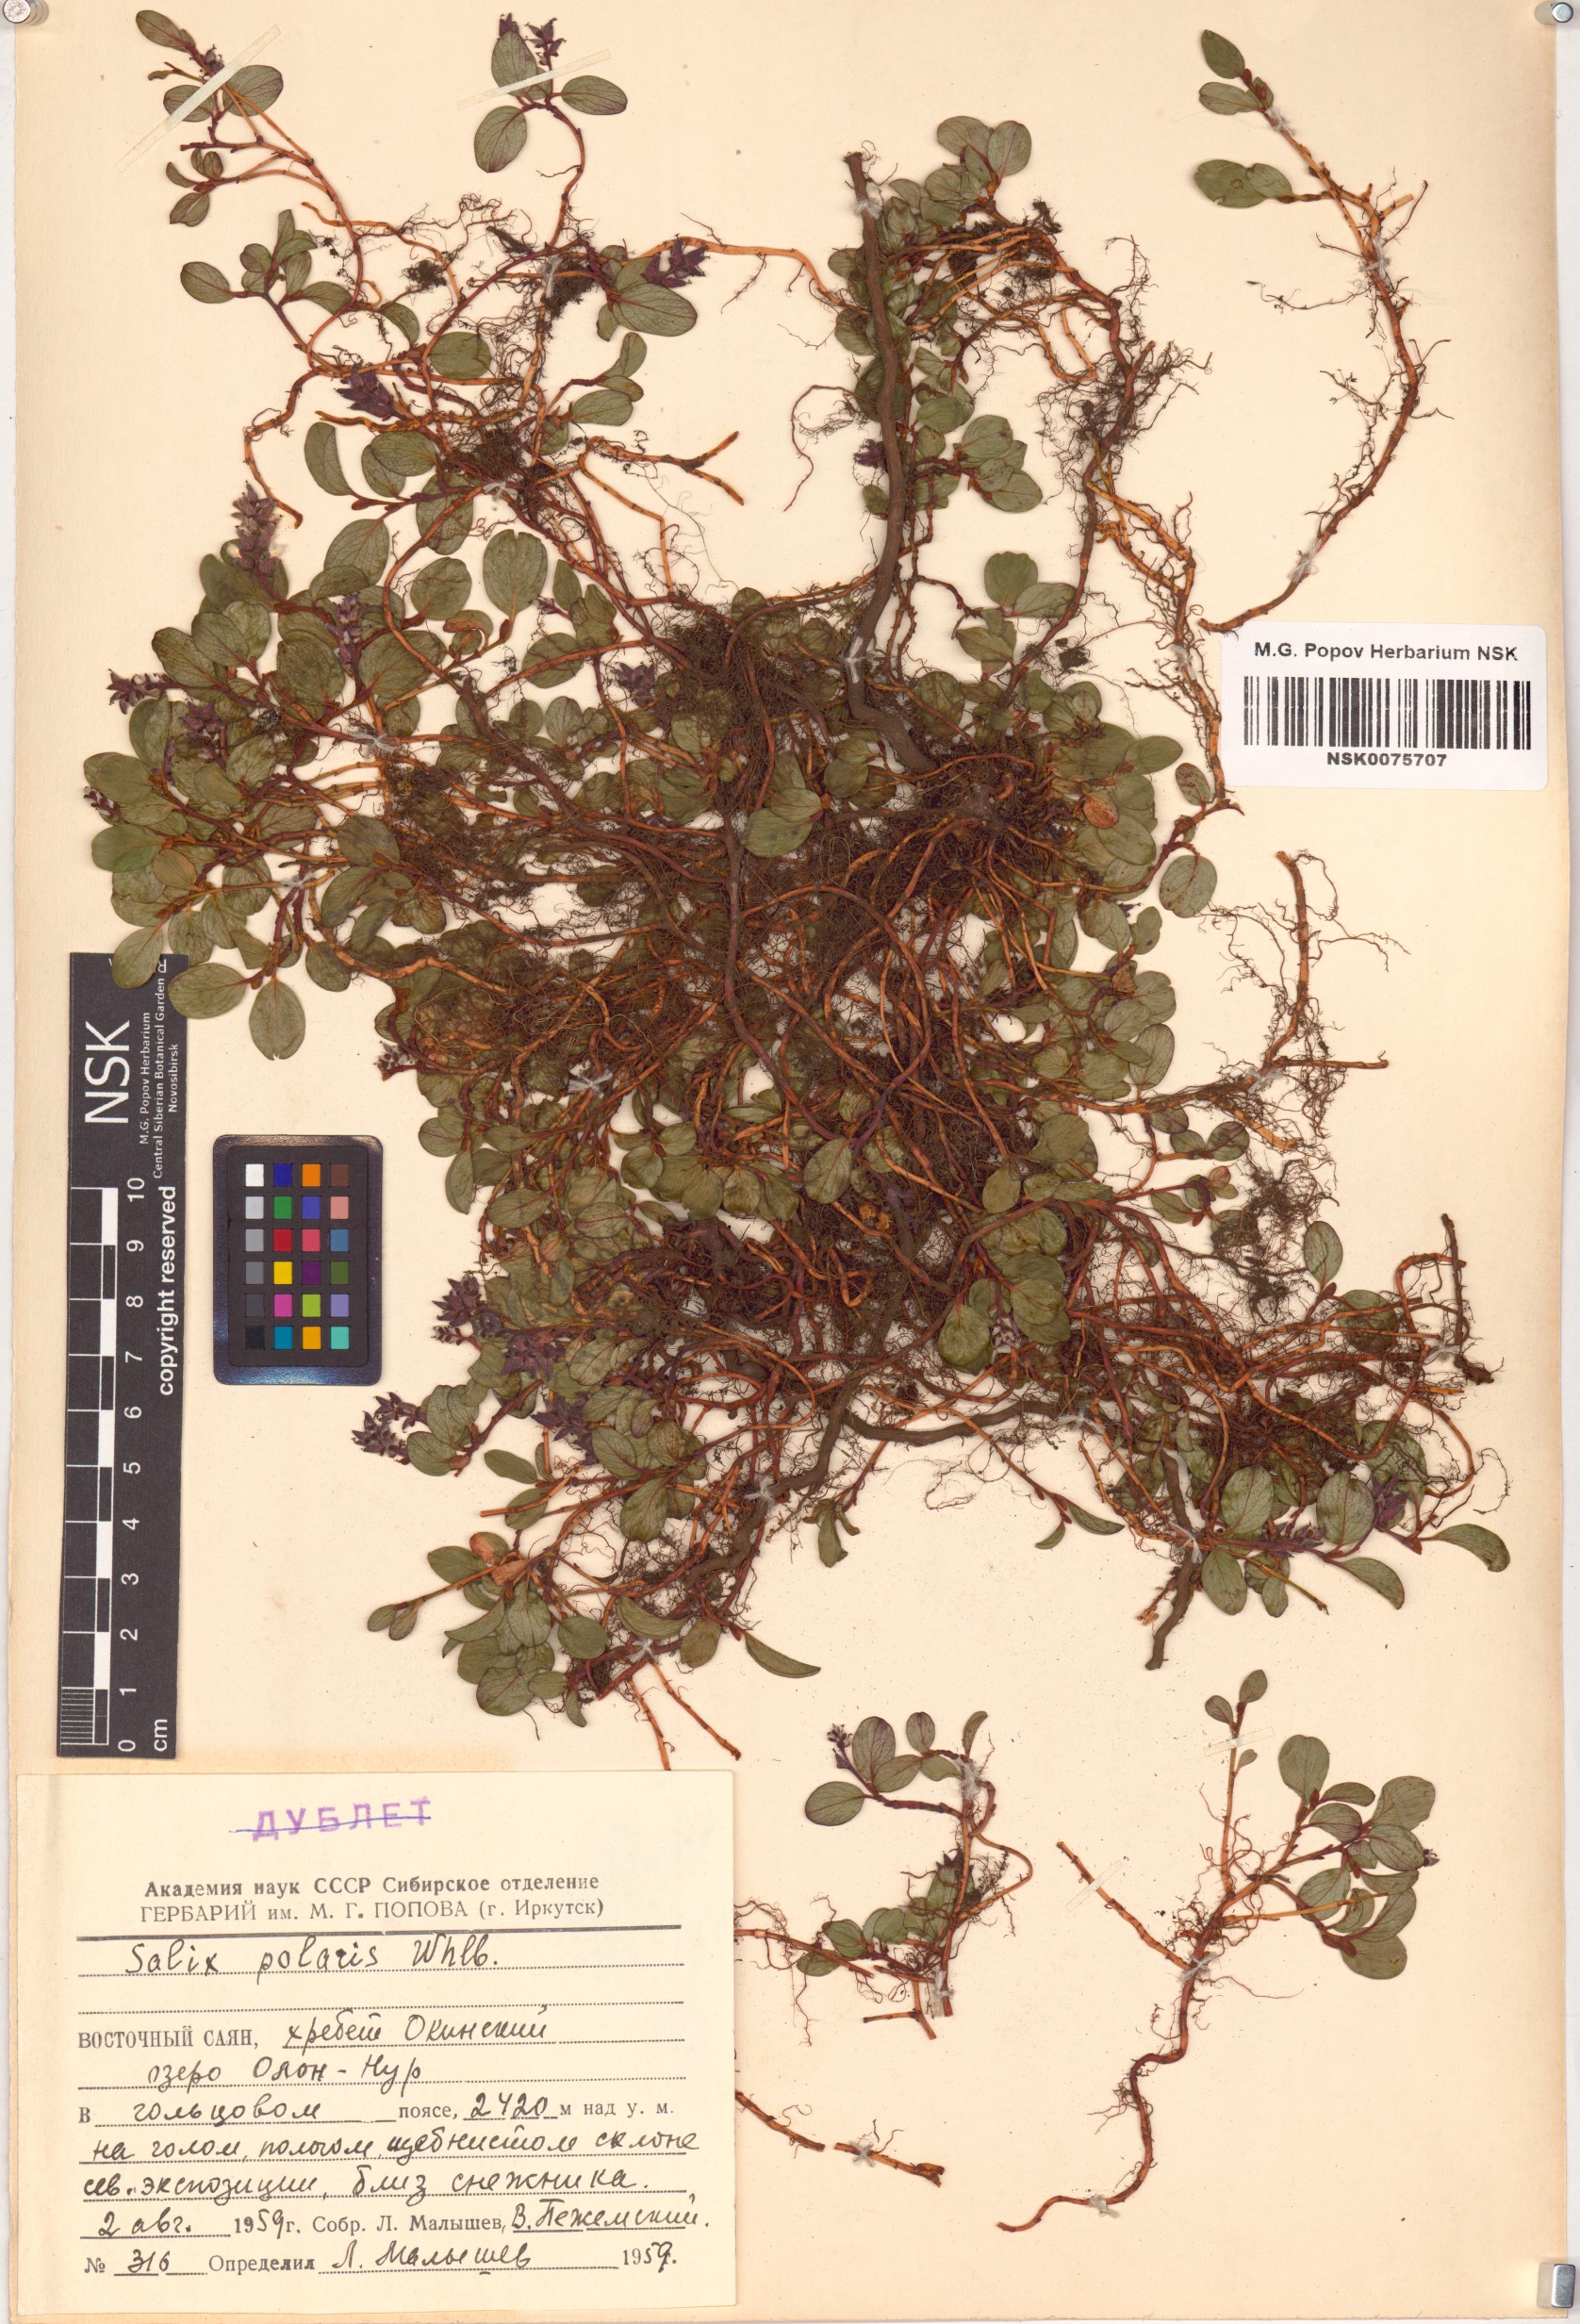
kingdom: Plantae
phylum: Tracheophyta
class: Magnoliopsida
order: Malpighiales
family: Salicaceae
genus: Salix
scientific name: Salix polaris
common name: Polar willow
